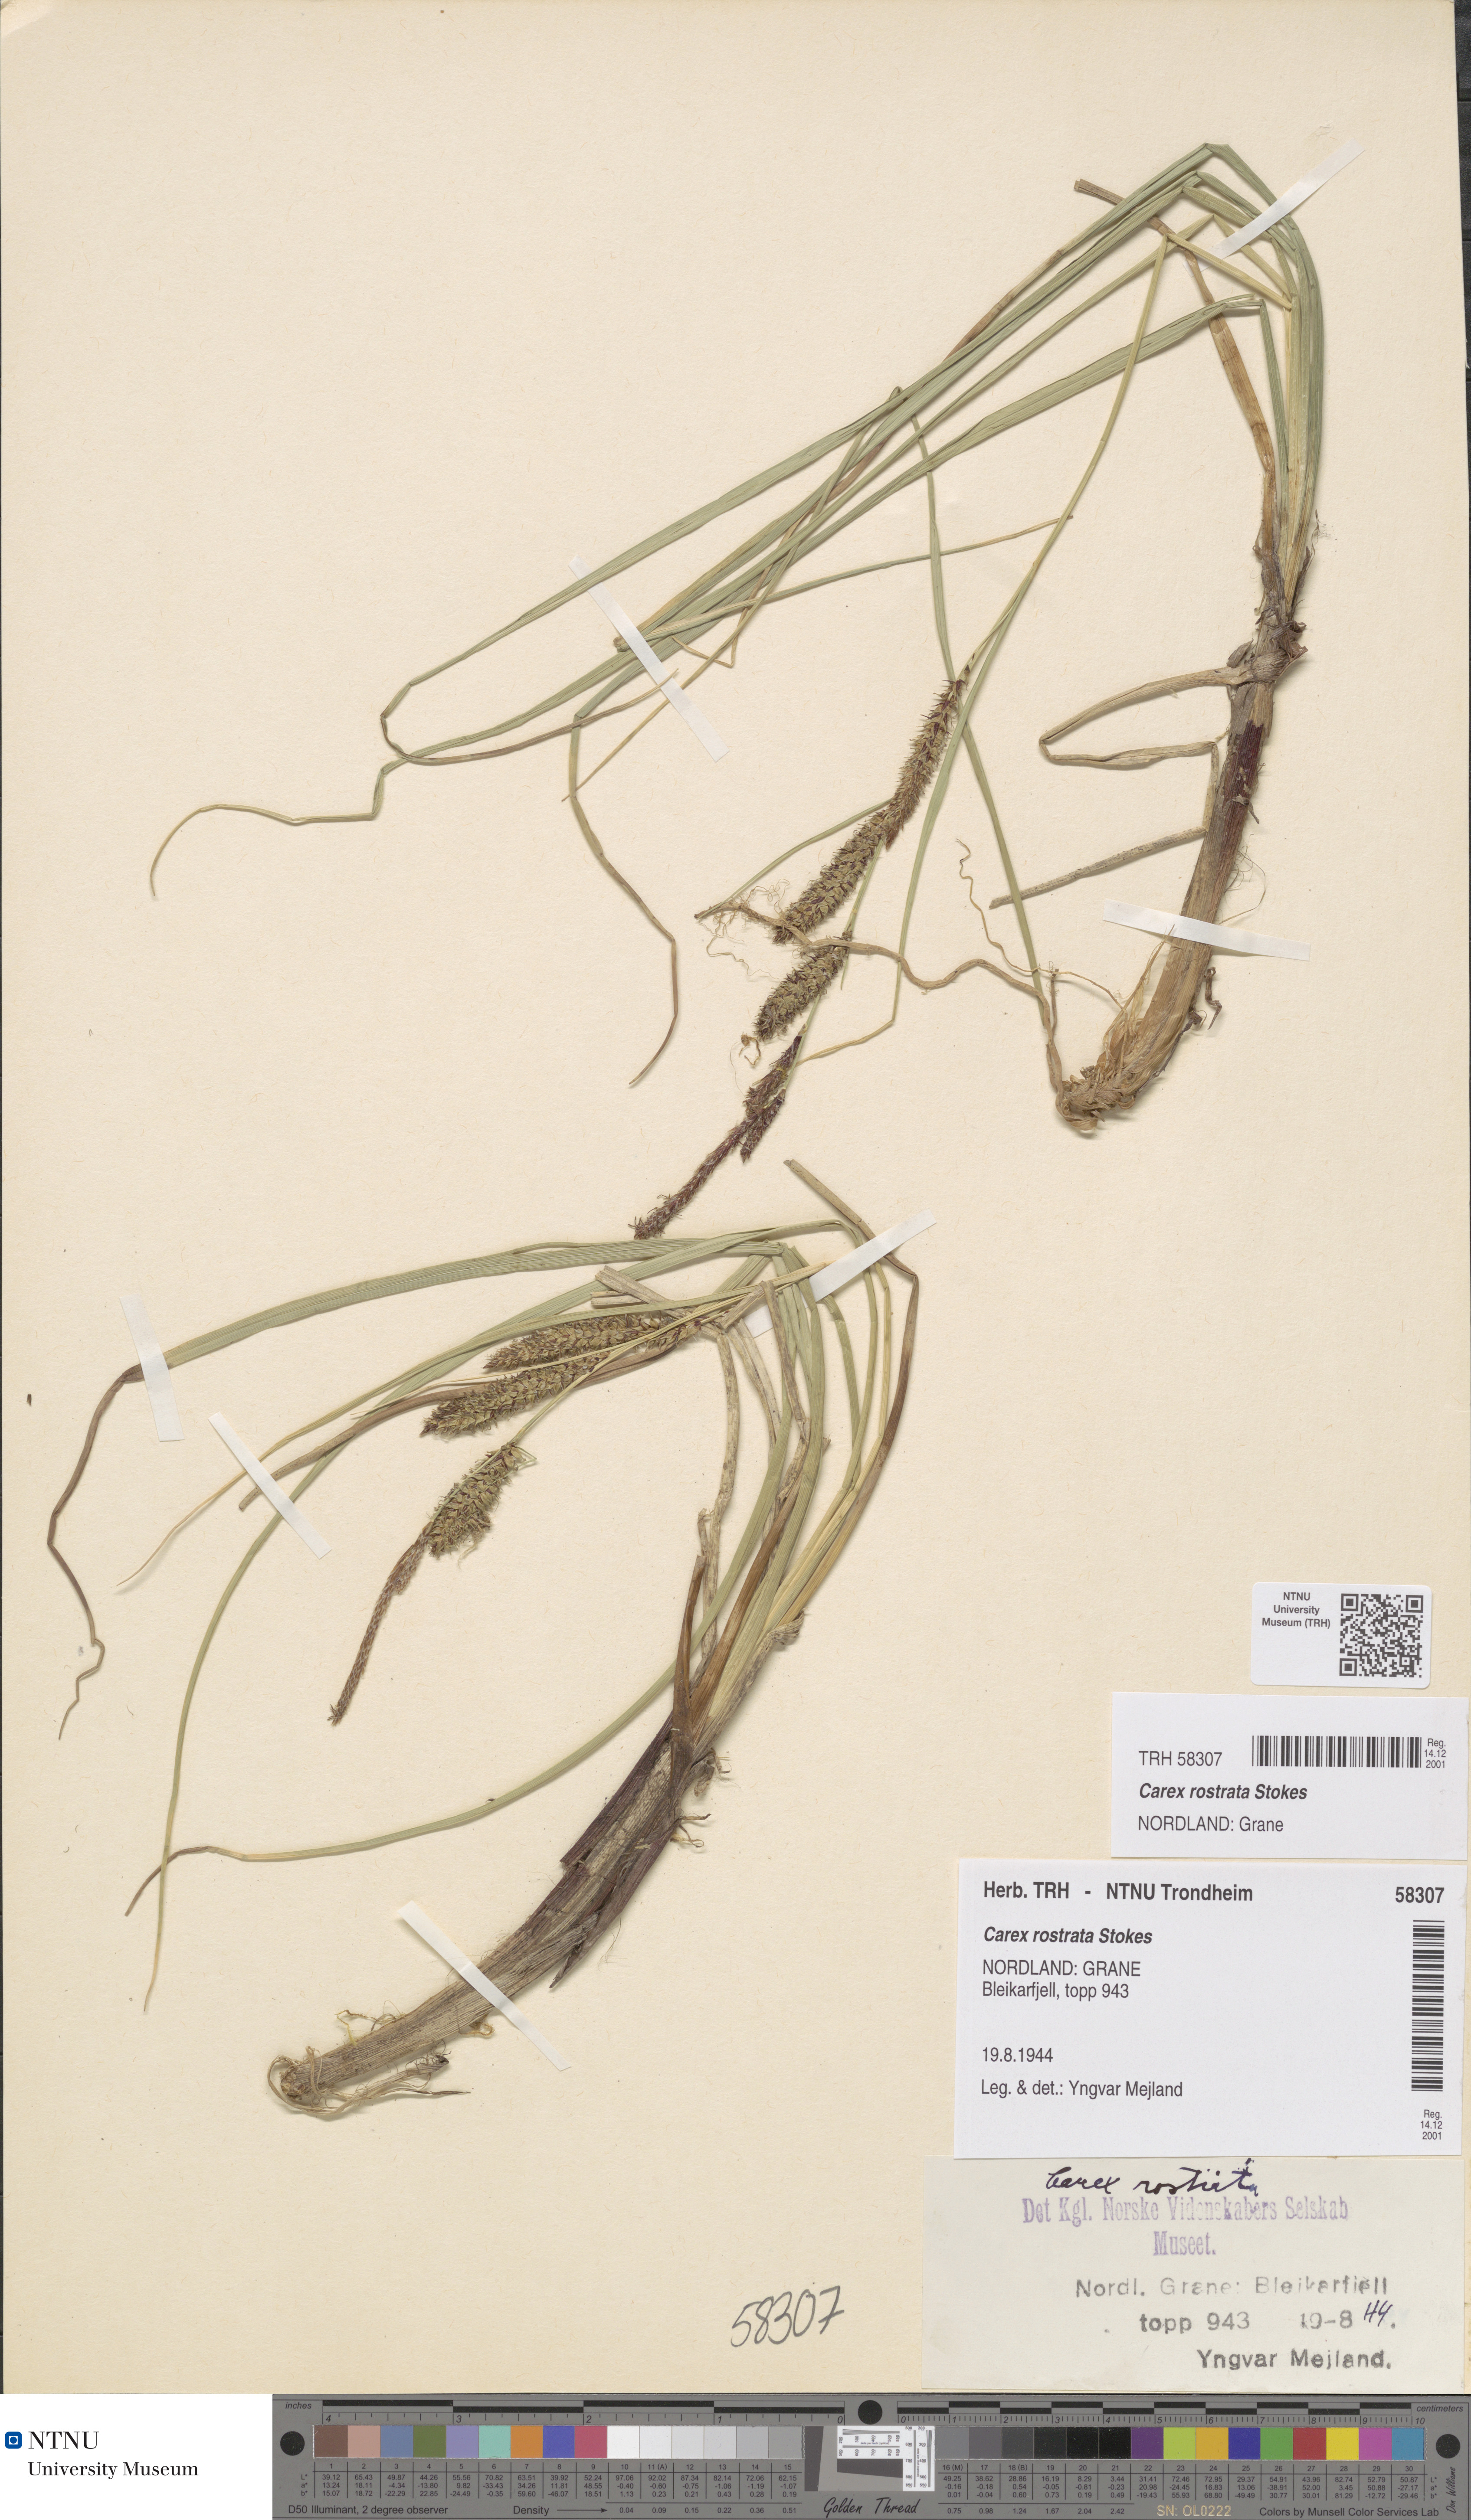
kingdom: Plantae
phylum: Tracheophyta
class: Liliopsida
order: Poales
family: Cyperaceae
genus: Carex
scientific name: Carex rostrata
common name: Bottle sedge
